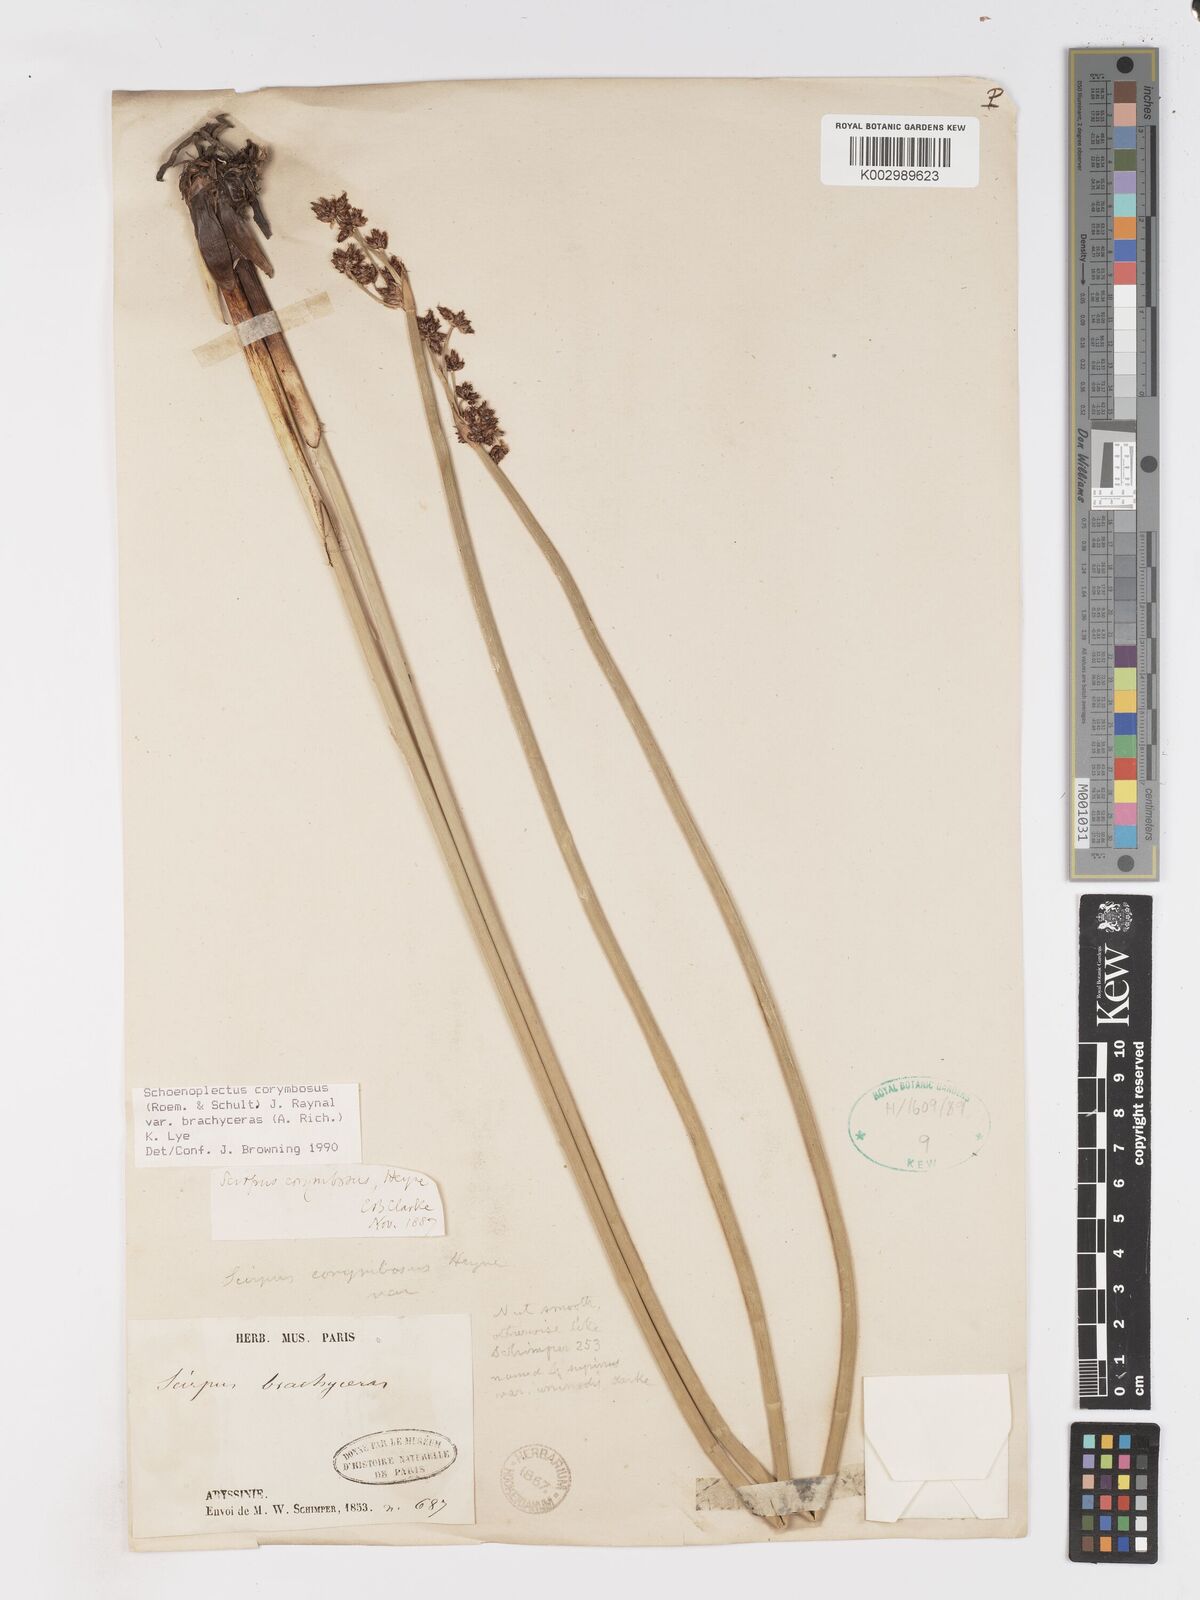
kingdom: Plantae
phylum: Tracheophyta
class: Liliopsida
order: Poales
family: Cyperaceae
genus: Schoenoplectiella
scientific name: Schoenoplectiella brachyceras
